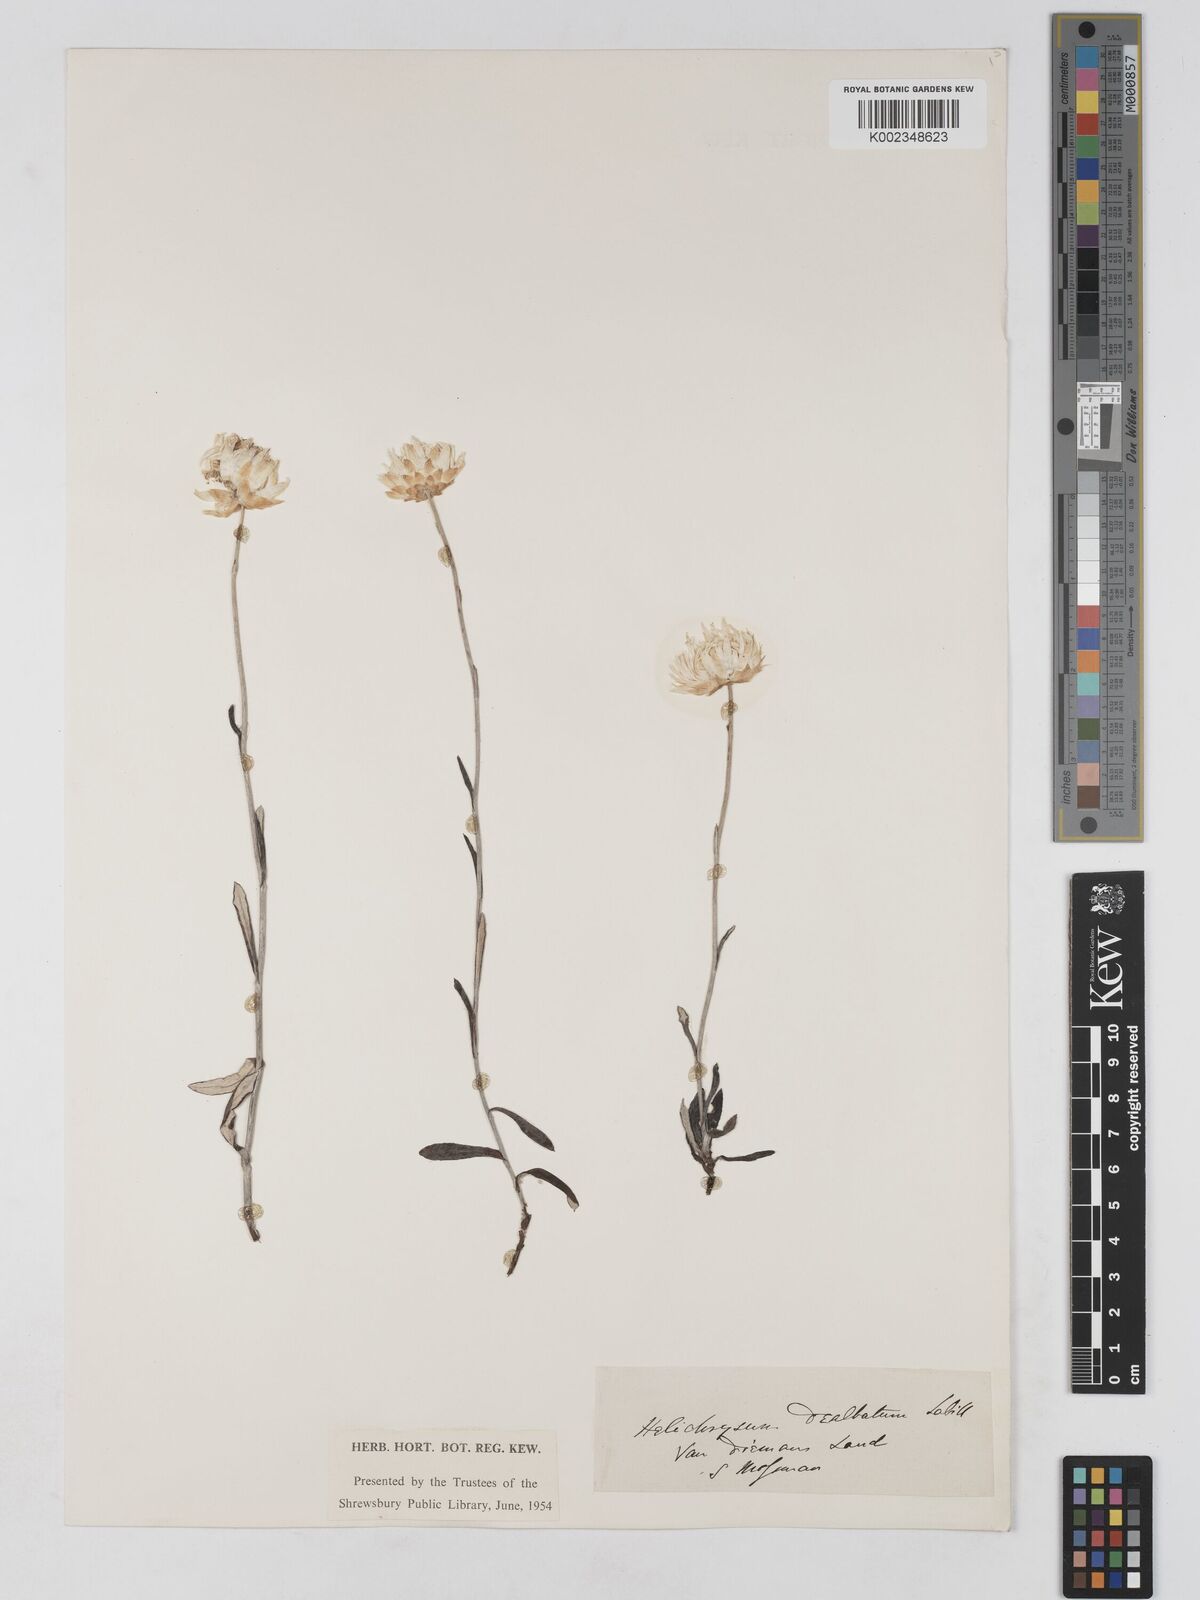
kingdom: Plantae
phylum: Tracheophyta
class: Magnoliopsida
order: Asterales
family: Asteraceae
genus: Argentipallium
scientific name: Argentipallium dealbatum
